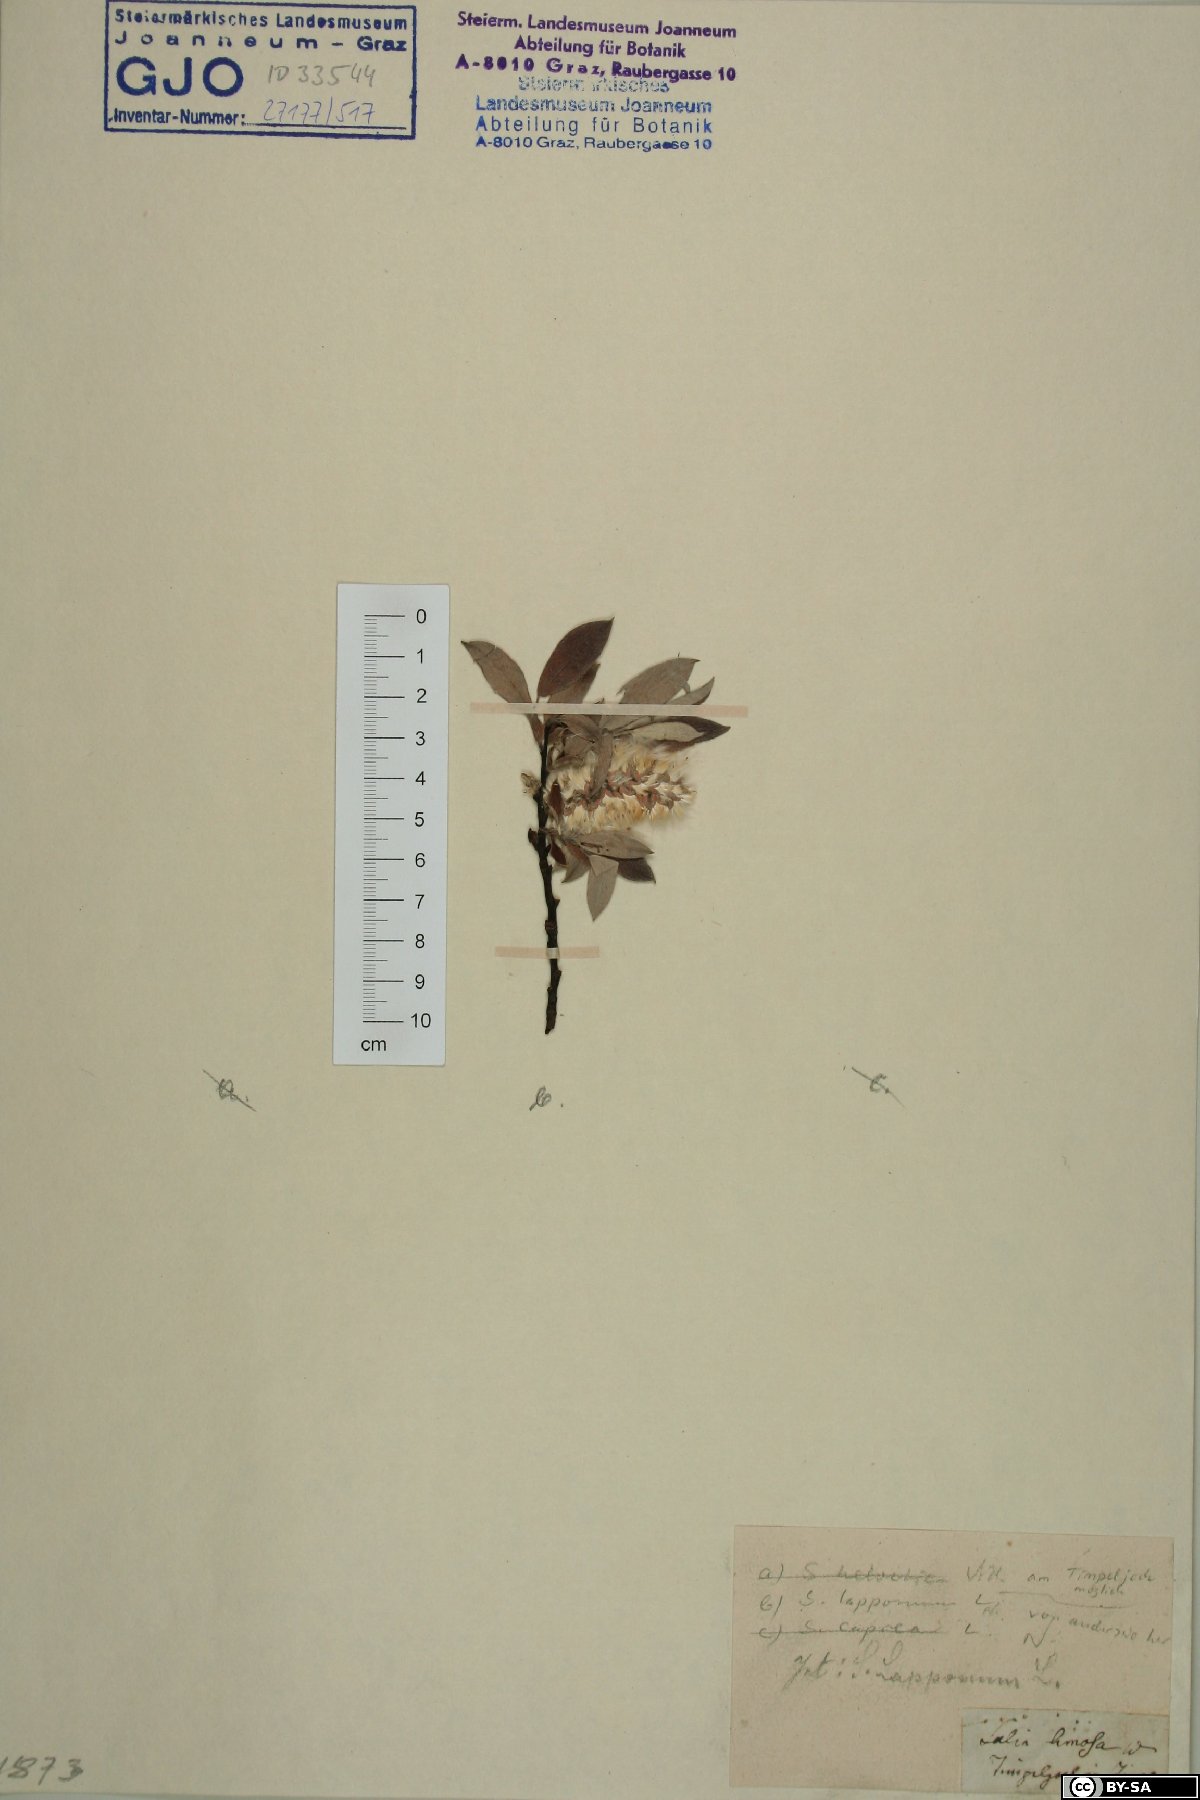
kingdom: Plantae
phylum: Tracheophyta
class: Magnoliopsida
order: Malpighiales
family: Salicaceae
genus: Salix
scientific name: Salix lapponum
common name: Downy willow
